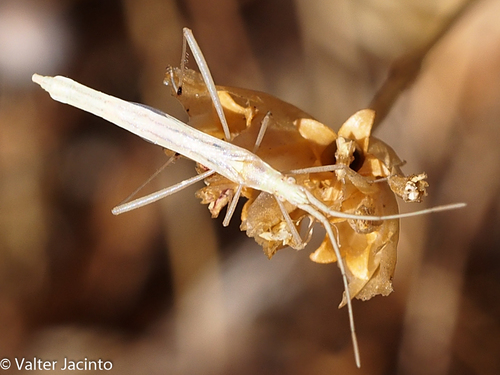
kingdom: Animalia
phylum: Arthropoda
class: Insecta
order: Hemiptera
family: Rhopalidae
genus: Chorosoma
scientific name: Chorosoma schillingii
